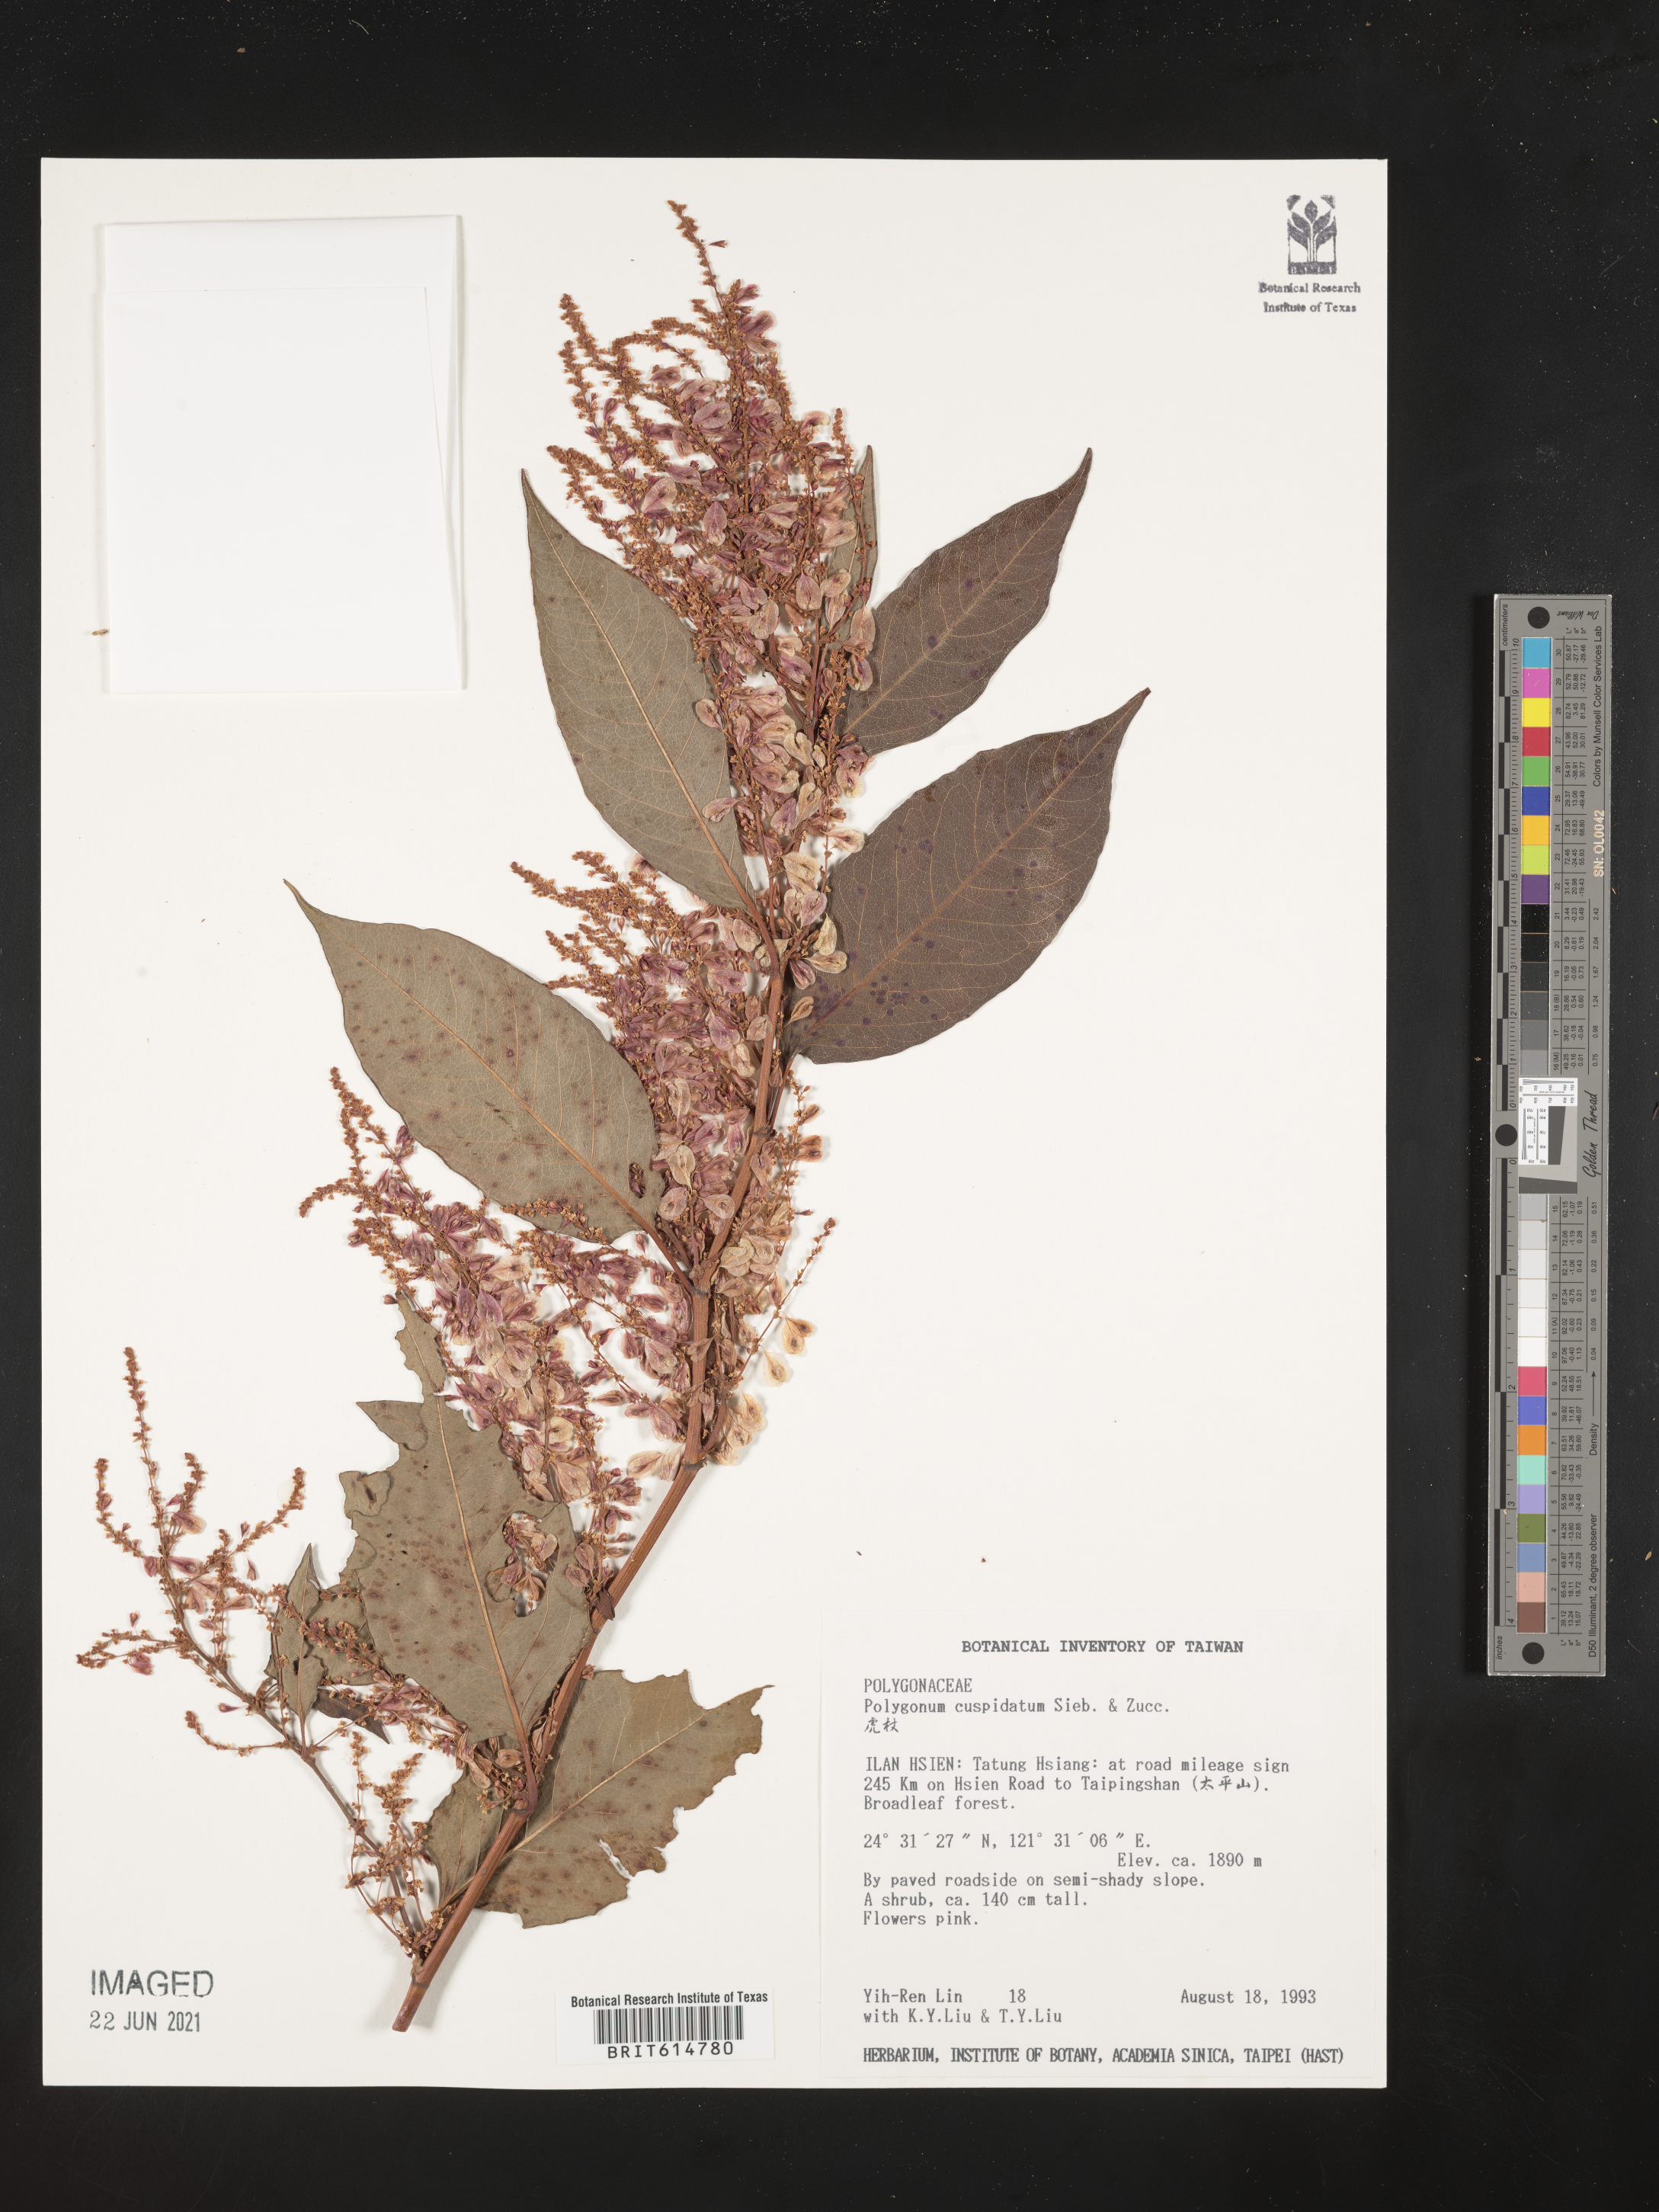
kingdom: Plantae
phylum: Tracheophyta
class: Magnoliopsida
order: Caryophyllales
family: Polygonaceae
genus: Reynoutria
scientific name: Reynoutria japonica
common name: Japanese knotweed
